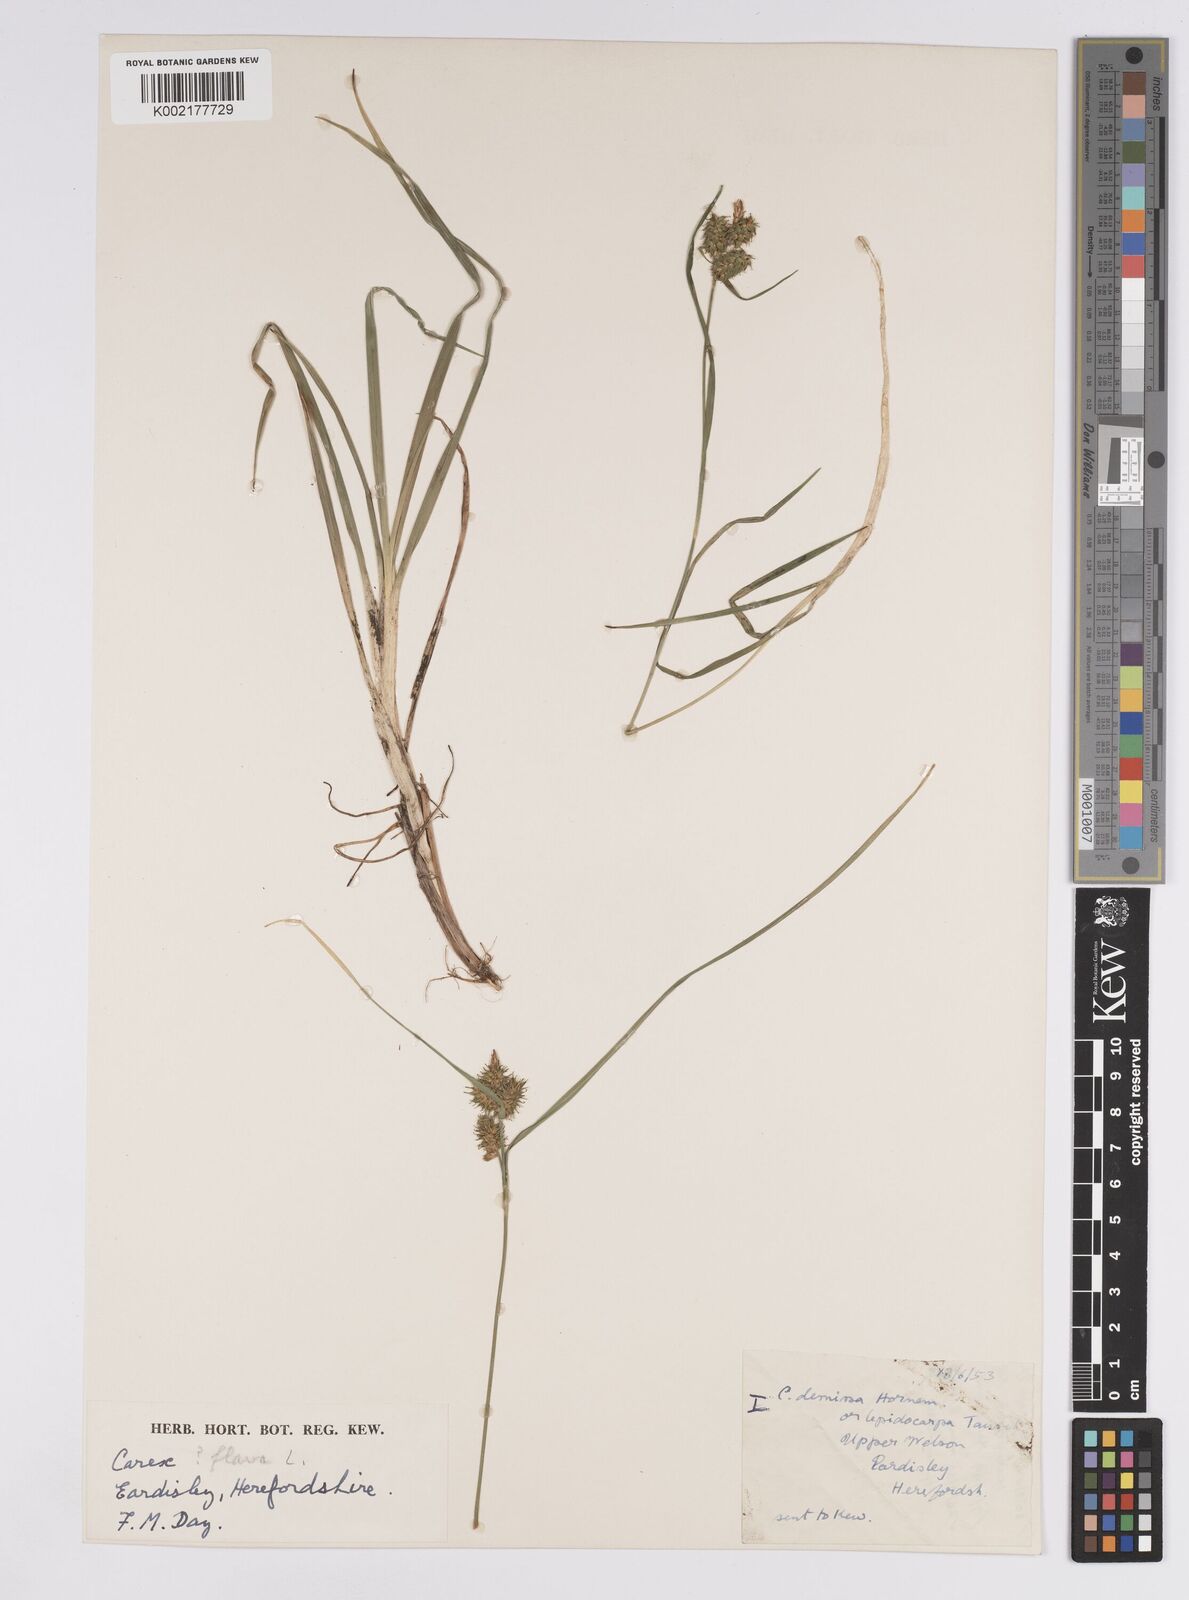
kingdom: Plantae
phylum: Tracheophyta
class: Liliopsida
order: Poales
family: Cyperaceae
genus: Carex
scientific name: Carex flava
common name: Large yellow-sedge
